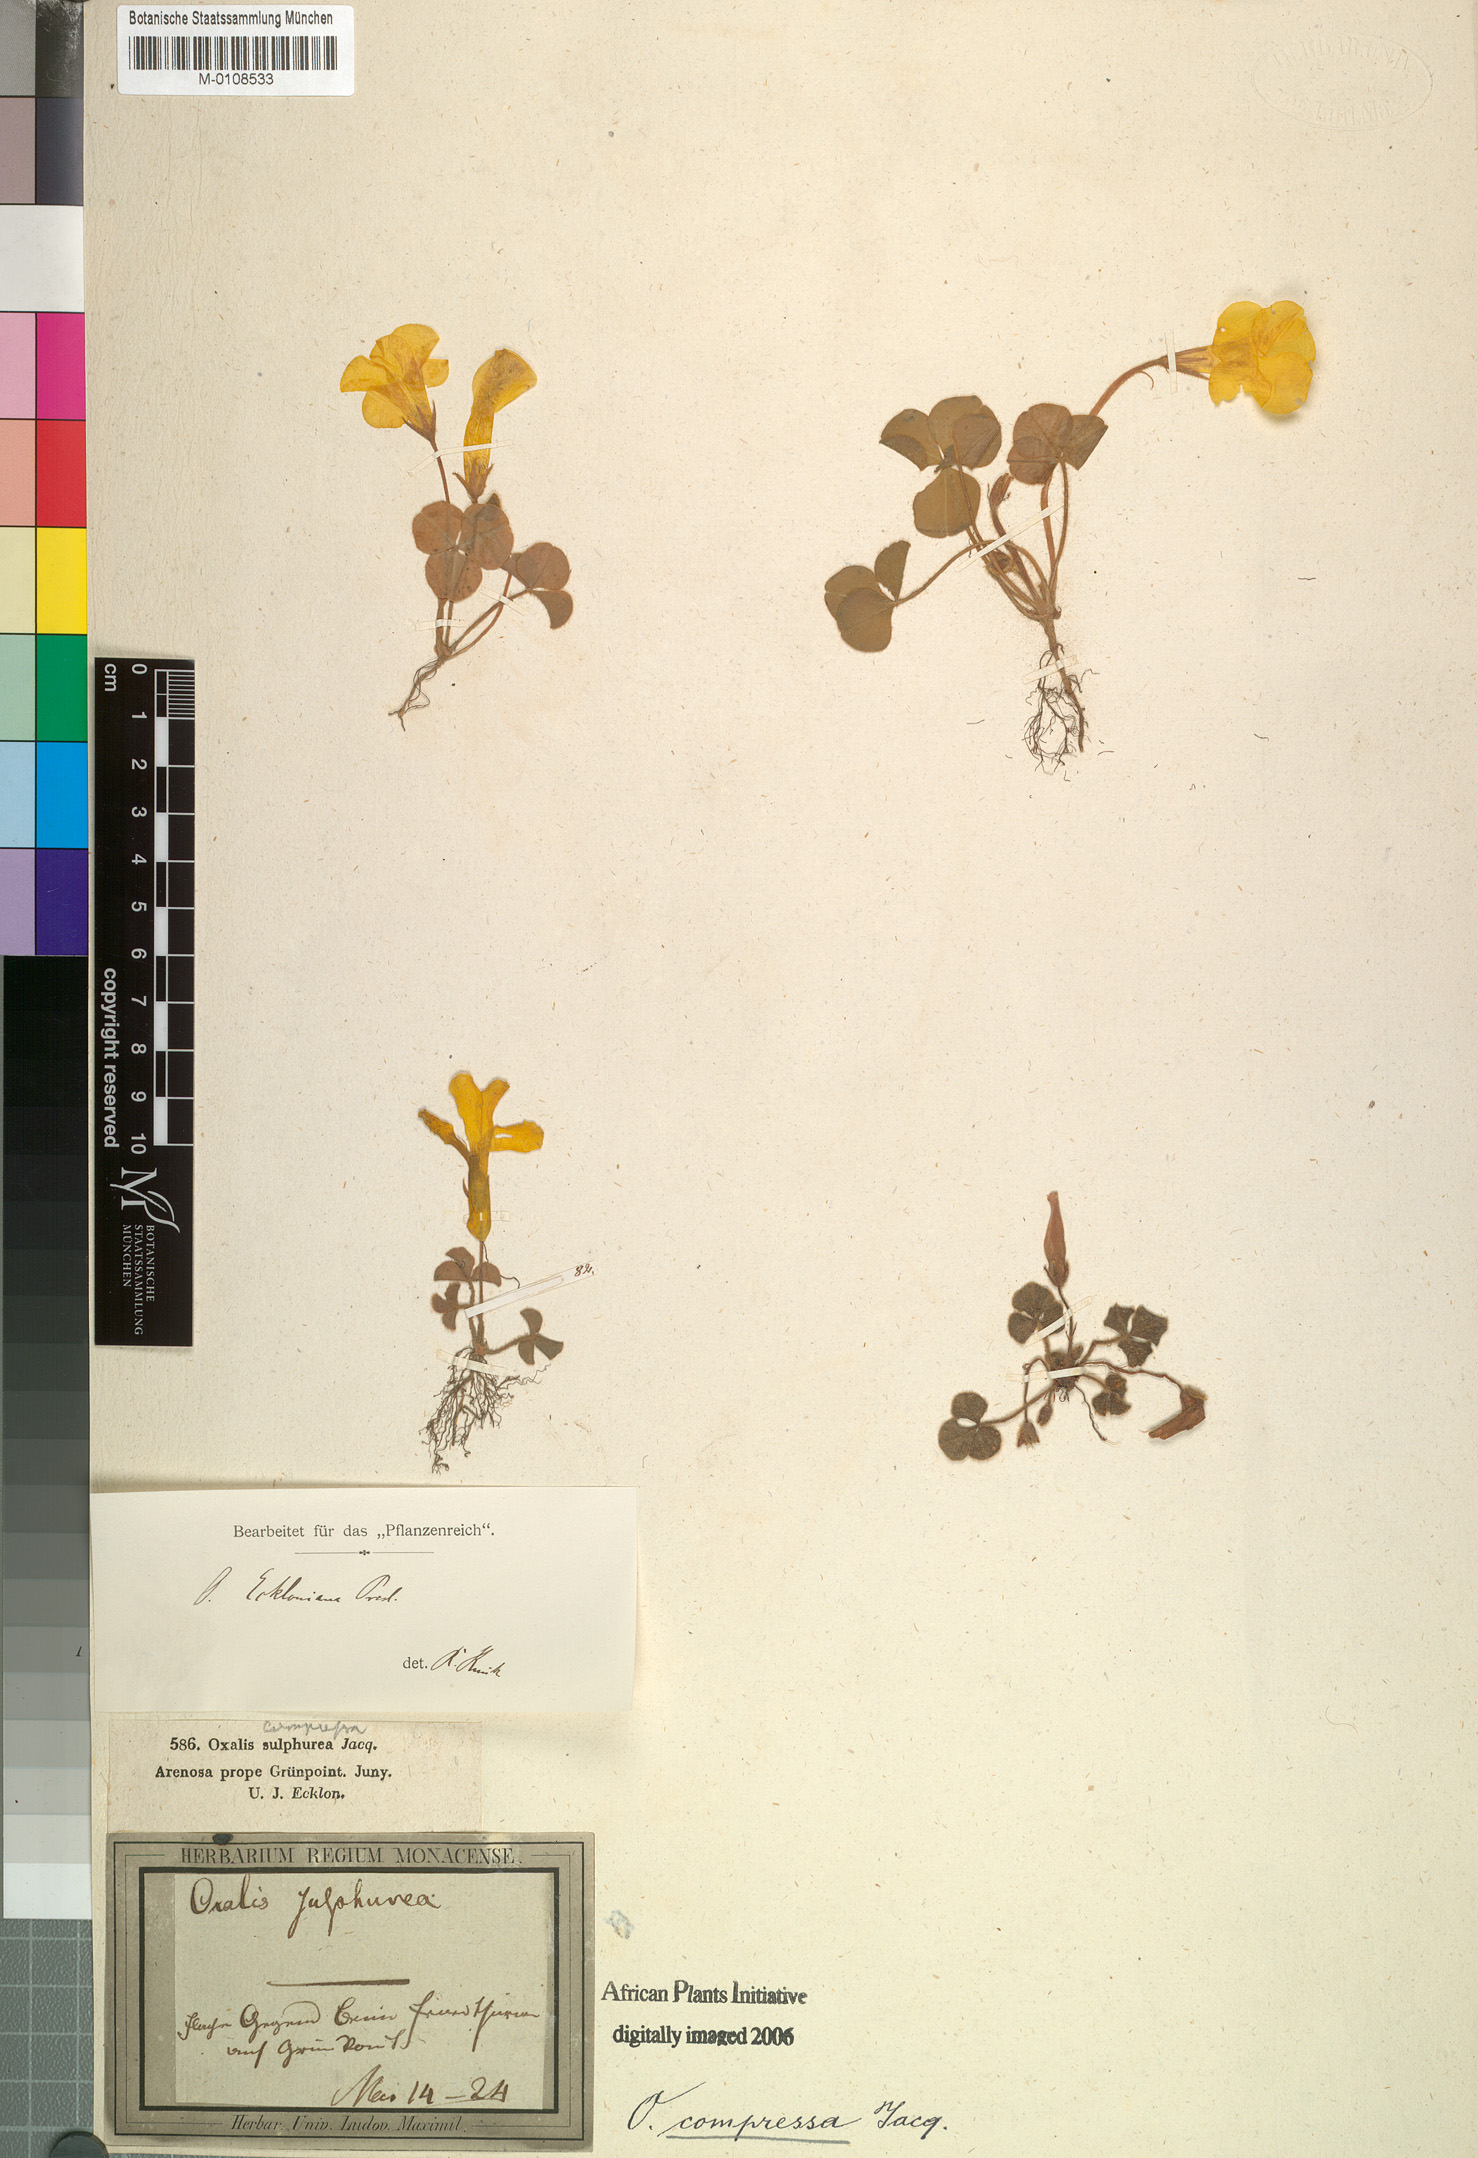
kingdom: Plantae
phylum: Tracheophyta
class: Magnoliopsida
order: Oxalidales
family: Oxalidaceae
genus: Oxalis
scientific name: Oxalis compressa
